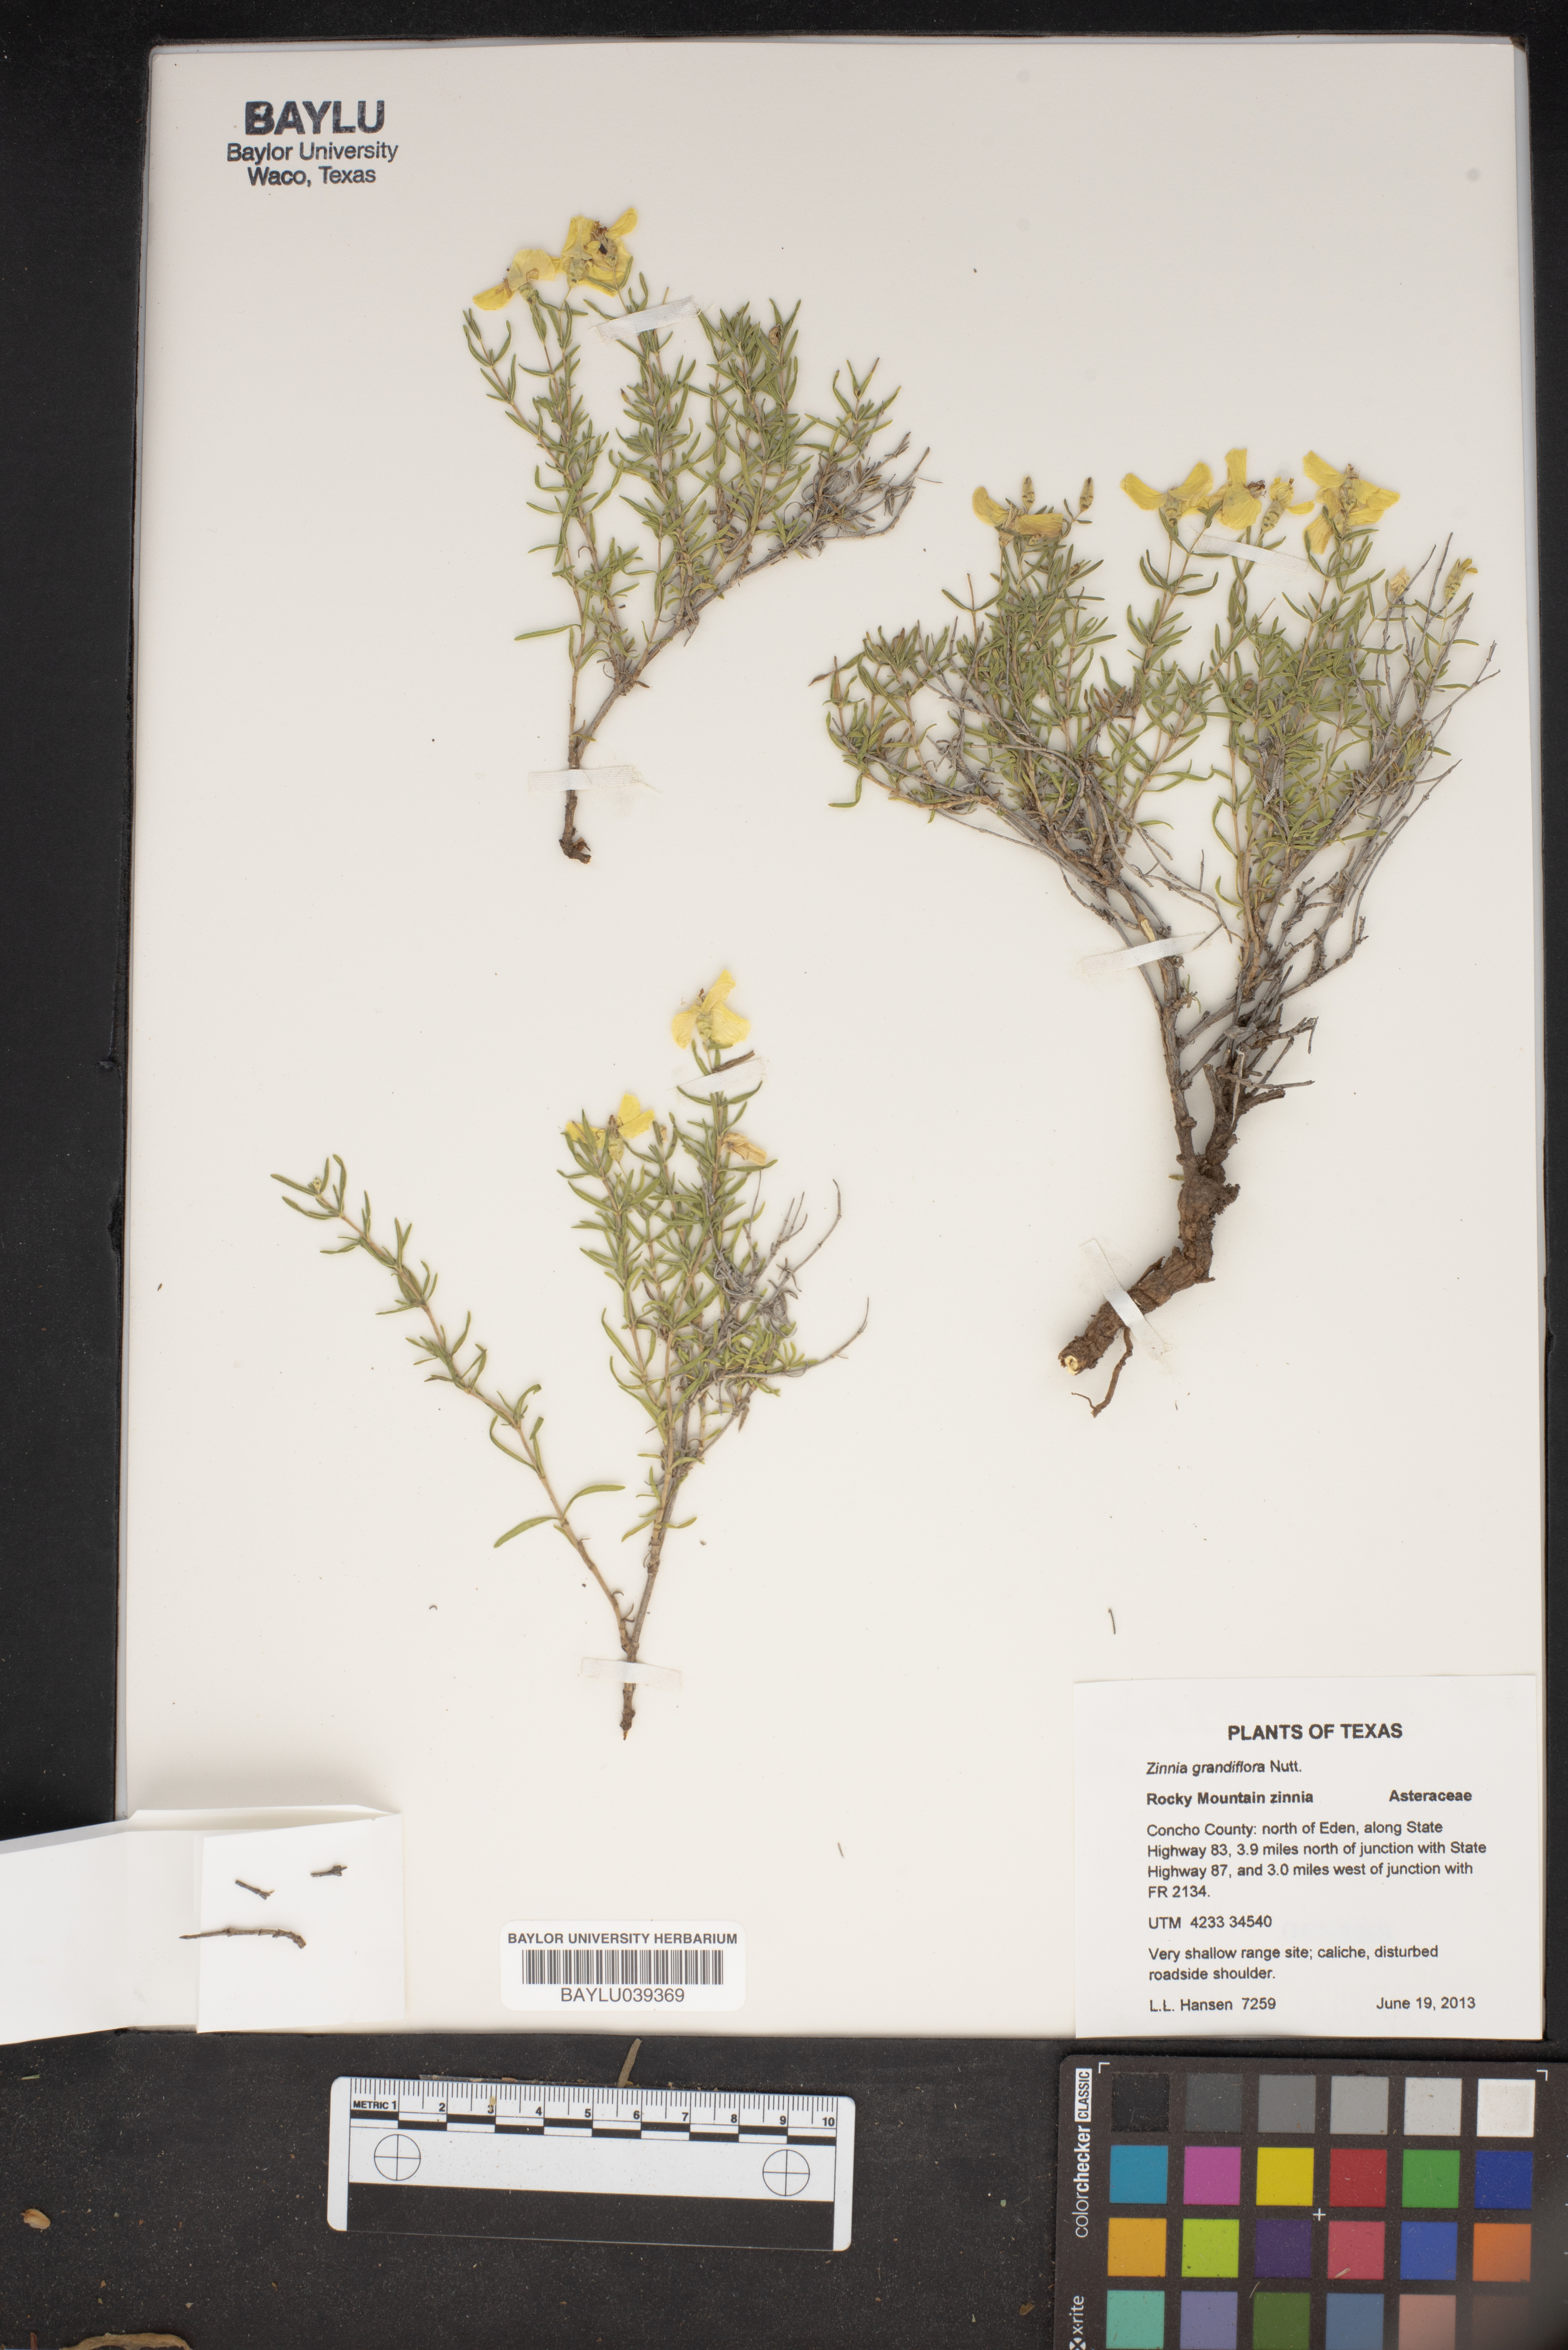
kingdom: Plantae
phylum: Tracheophyta
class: Magnoliopsida
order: Asterales
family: Asteraceae
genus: Zinnia
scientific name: Zinnia grandiflora
